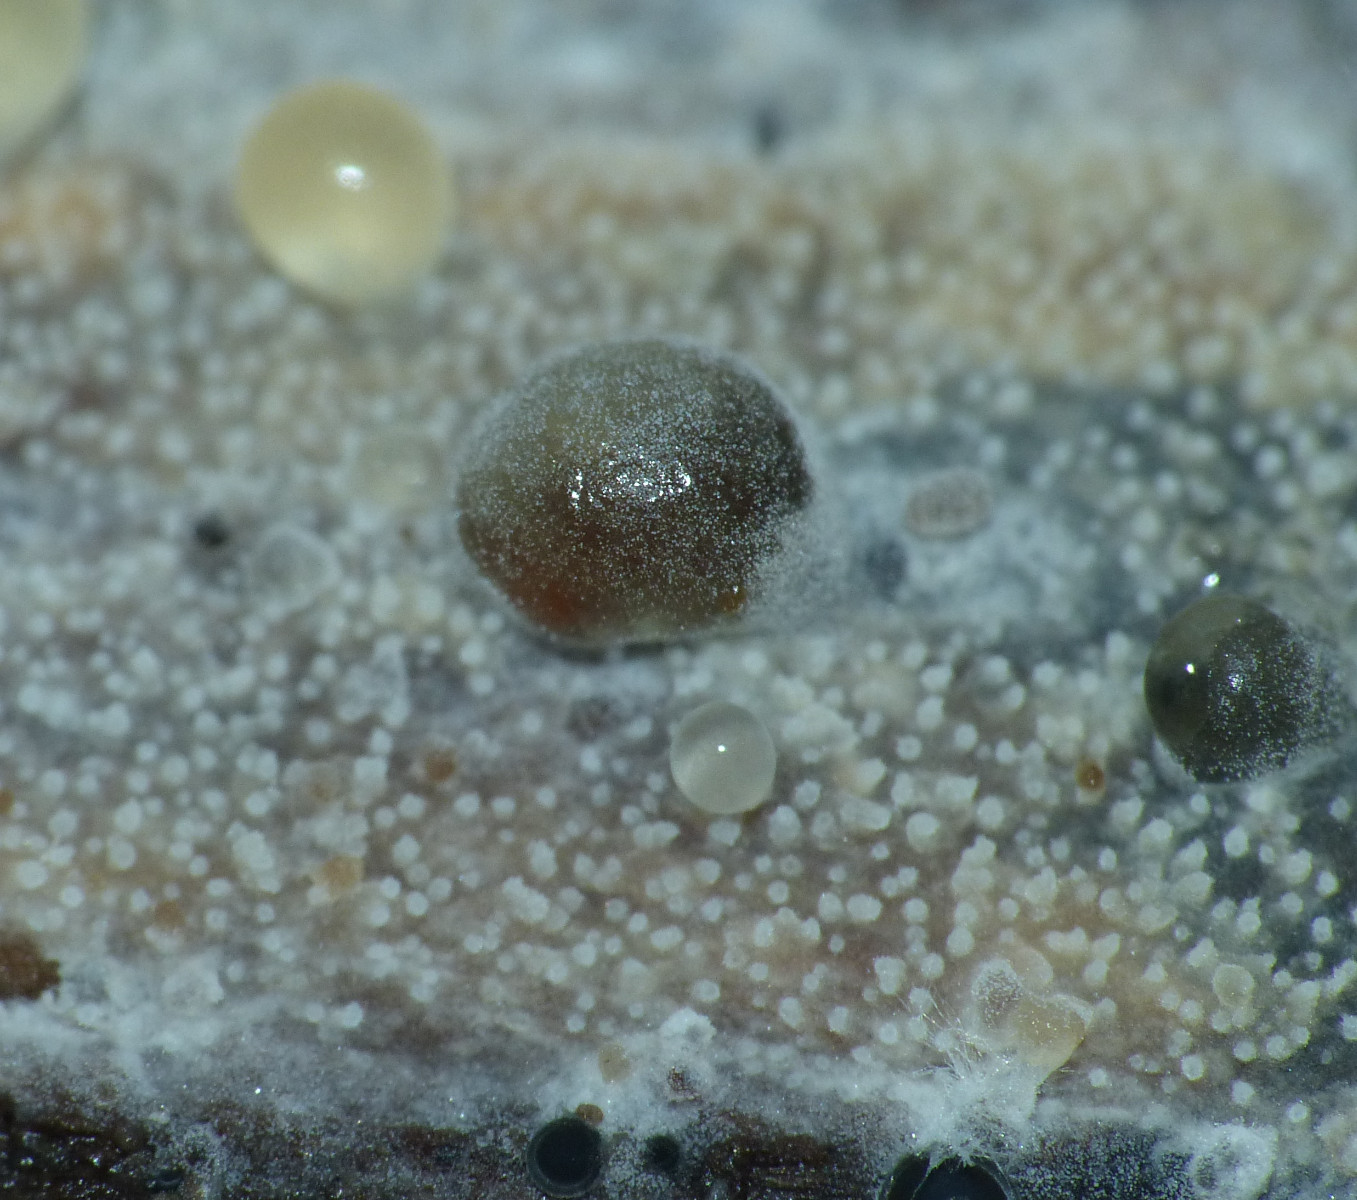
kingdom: Fungi
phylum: Basidiomycota
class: Agaricomycetes
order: Hymenochaetales
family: Rickenellaceae
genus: Resinicium
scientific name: Resinicium bicolor
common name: almindelig vokstand
